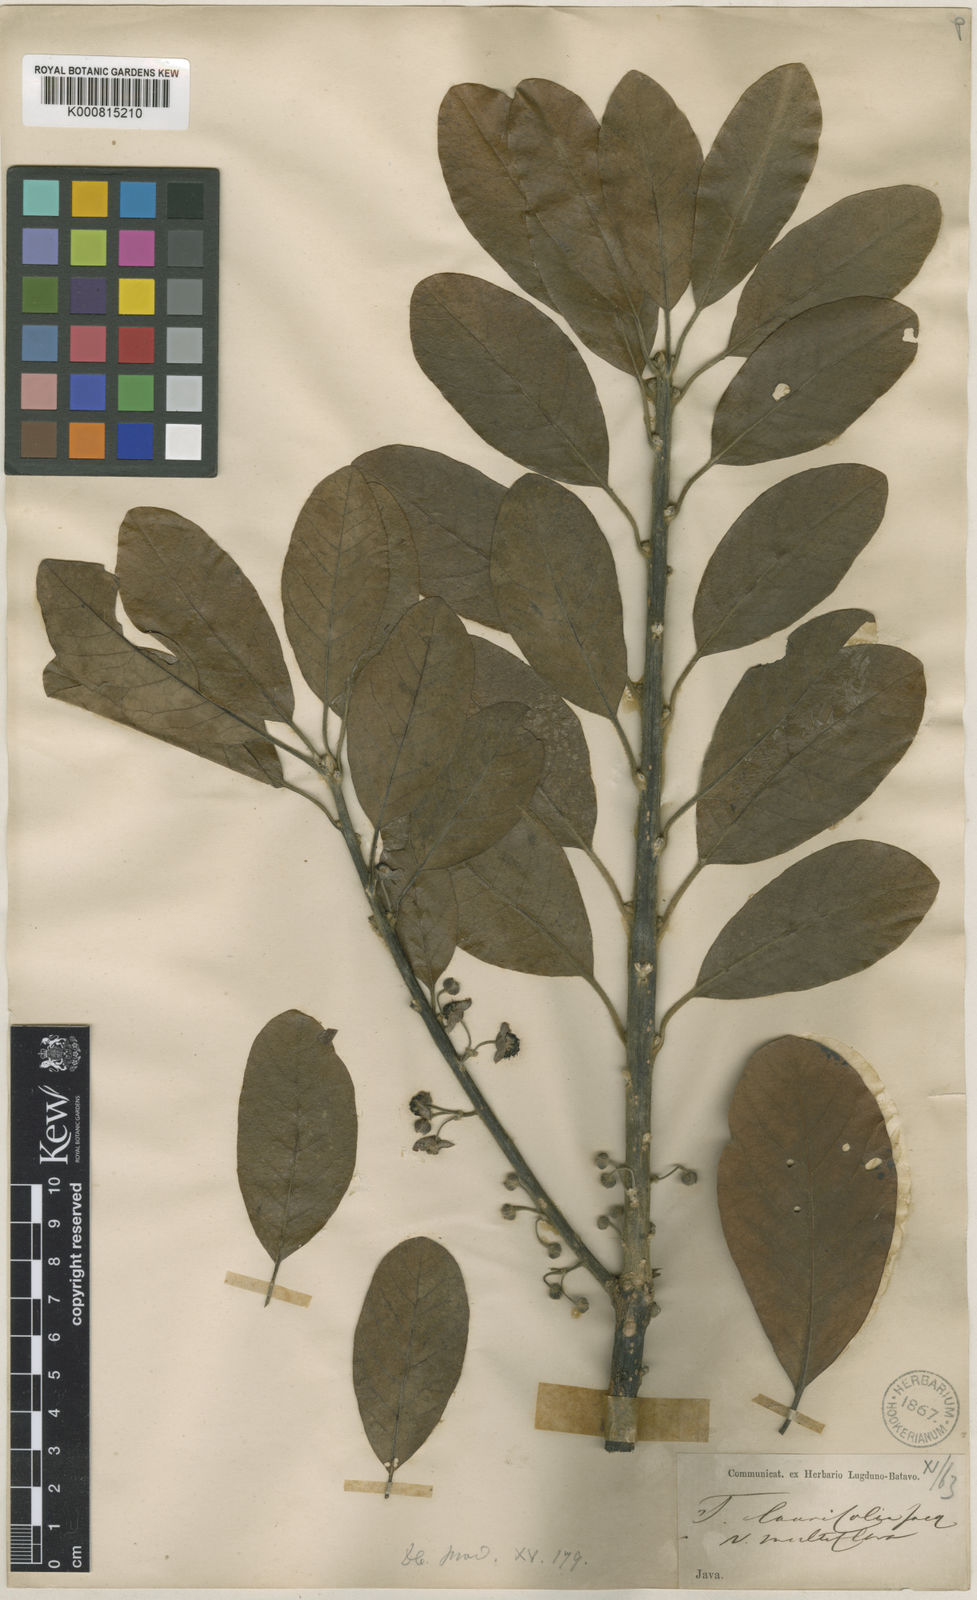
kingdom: Plantae
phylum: Tracheophyta
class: Magnoliopsida
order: Laurales
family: Lauraceae
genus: Litsea
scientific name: Litsea glutinosa
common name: Indian-laurel
